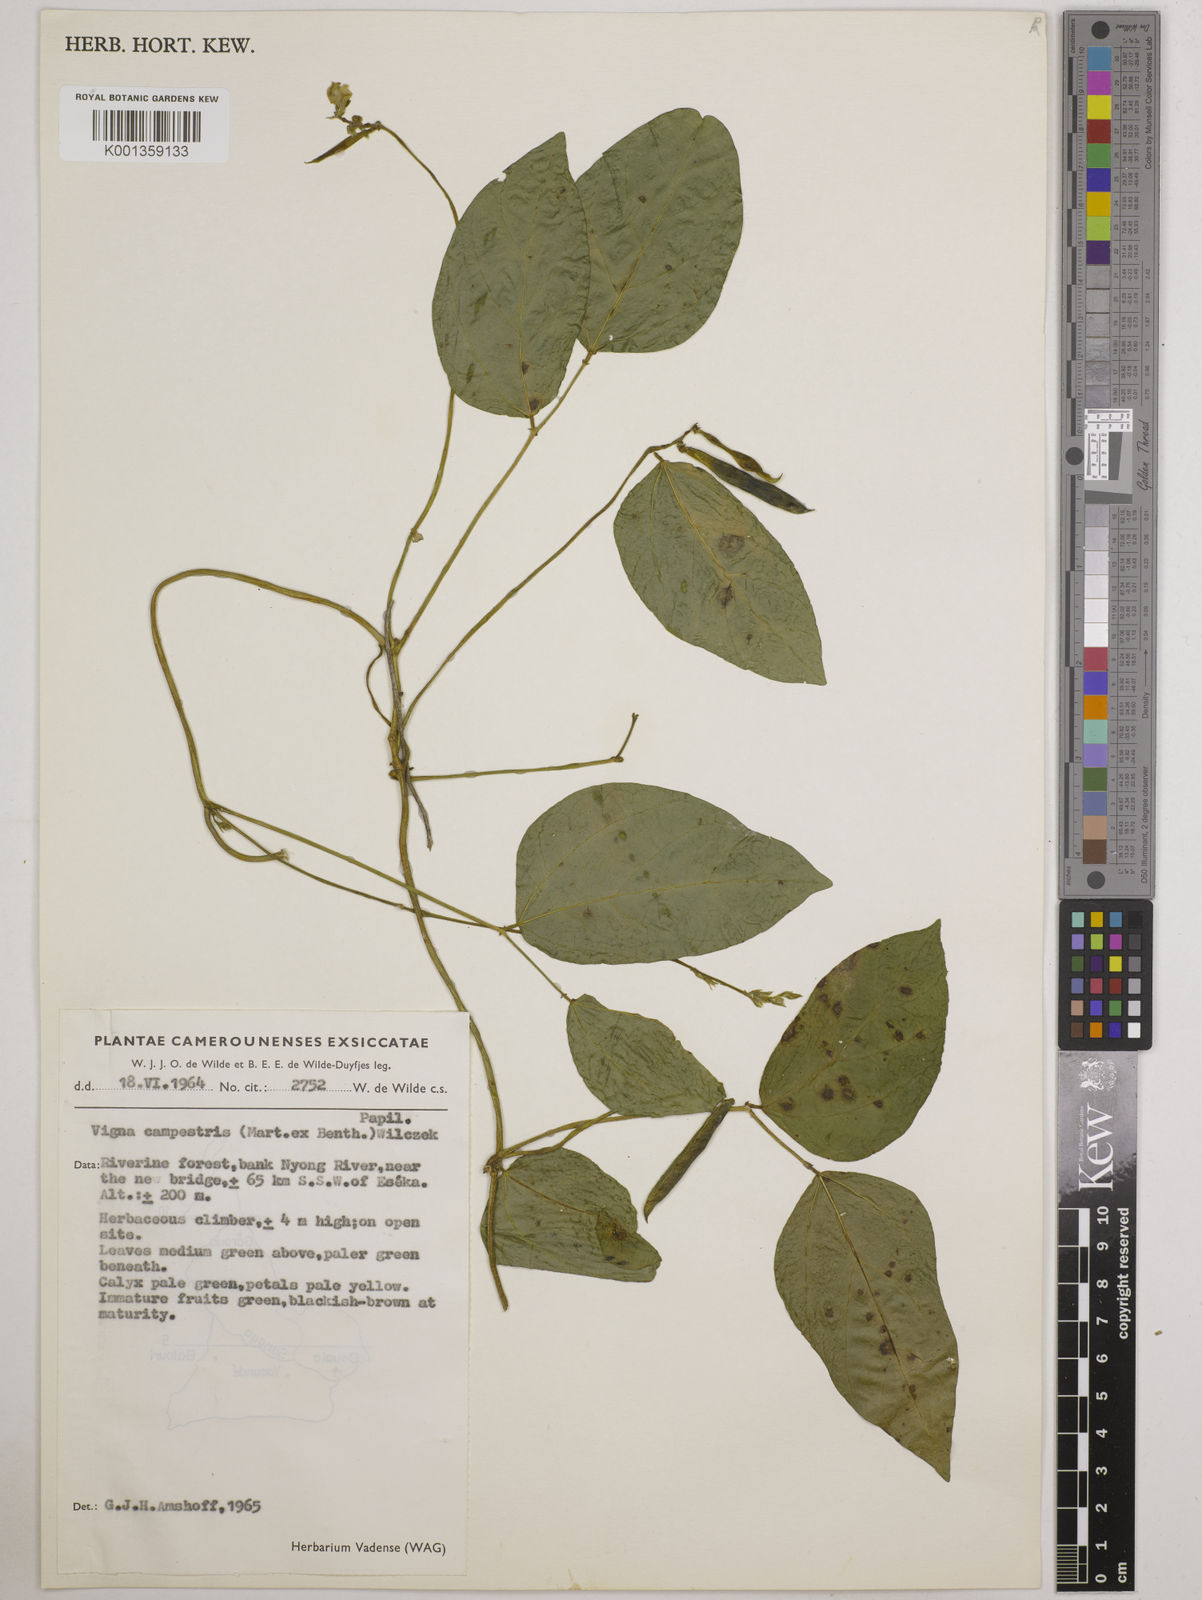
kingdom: Plantae
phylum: Tracheophyta
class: Magnoliopsida
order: Fabales
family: Fabaceae
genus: Vigna
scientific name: Vigna juruana
